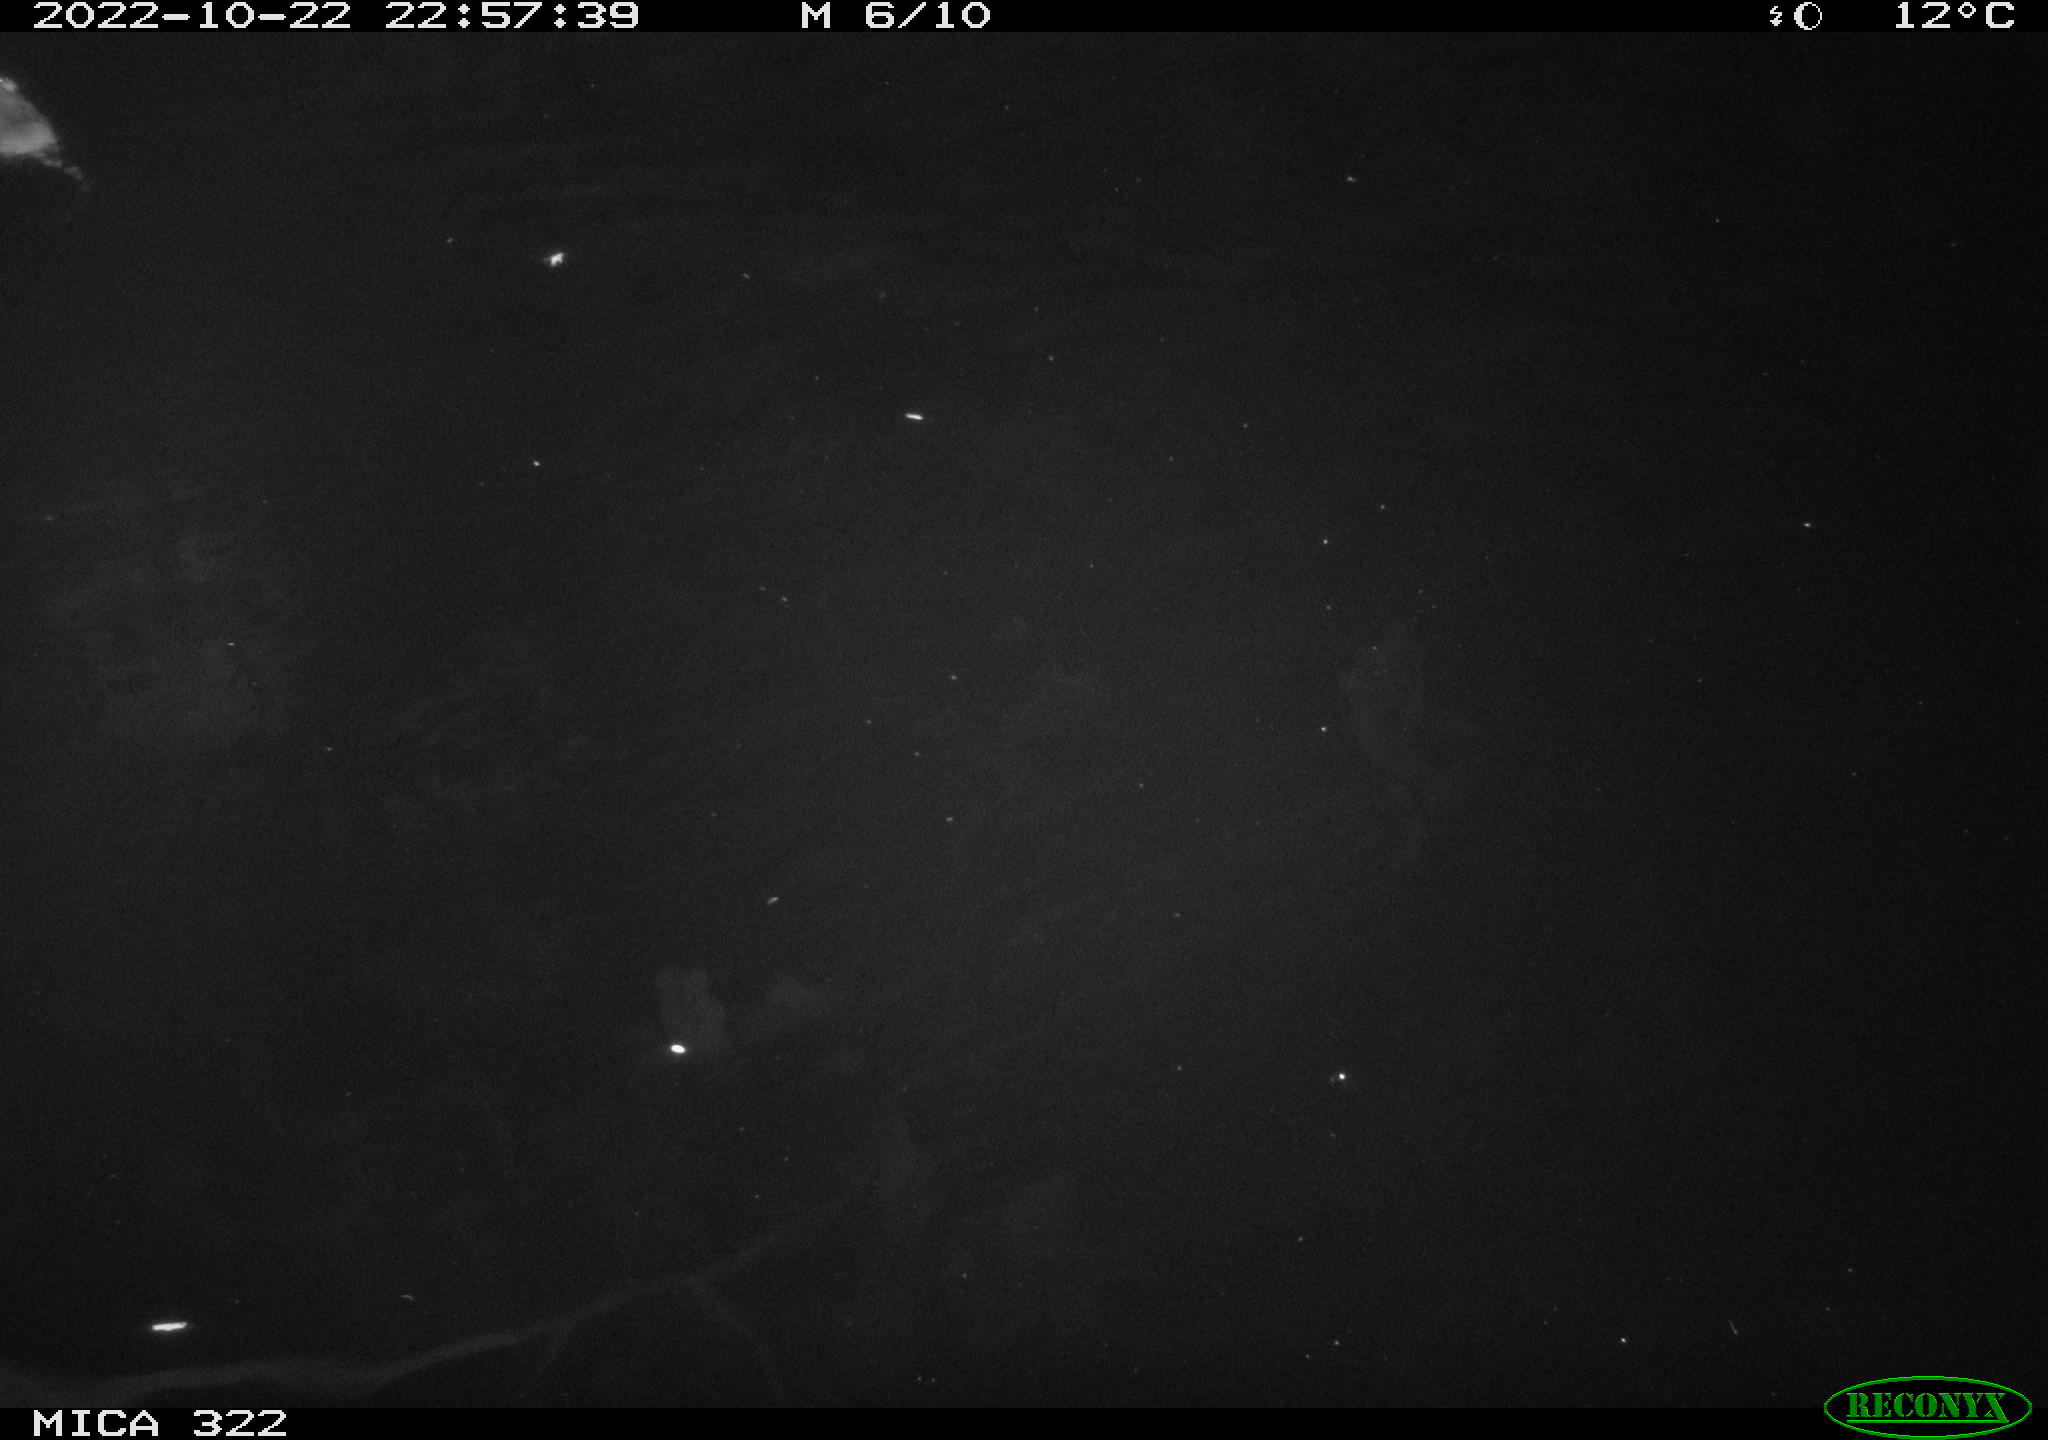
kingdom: Animalia
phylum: Chordata
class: Mammalia
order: Rodentia
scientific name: Rodentia
